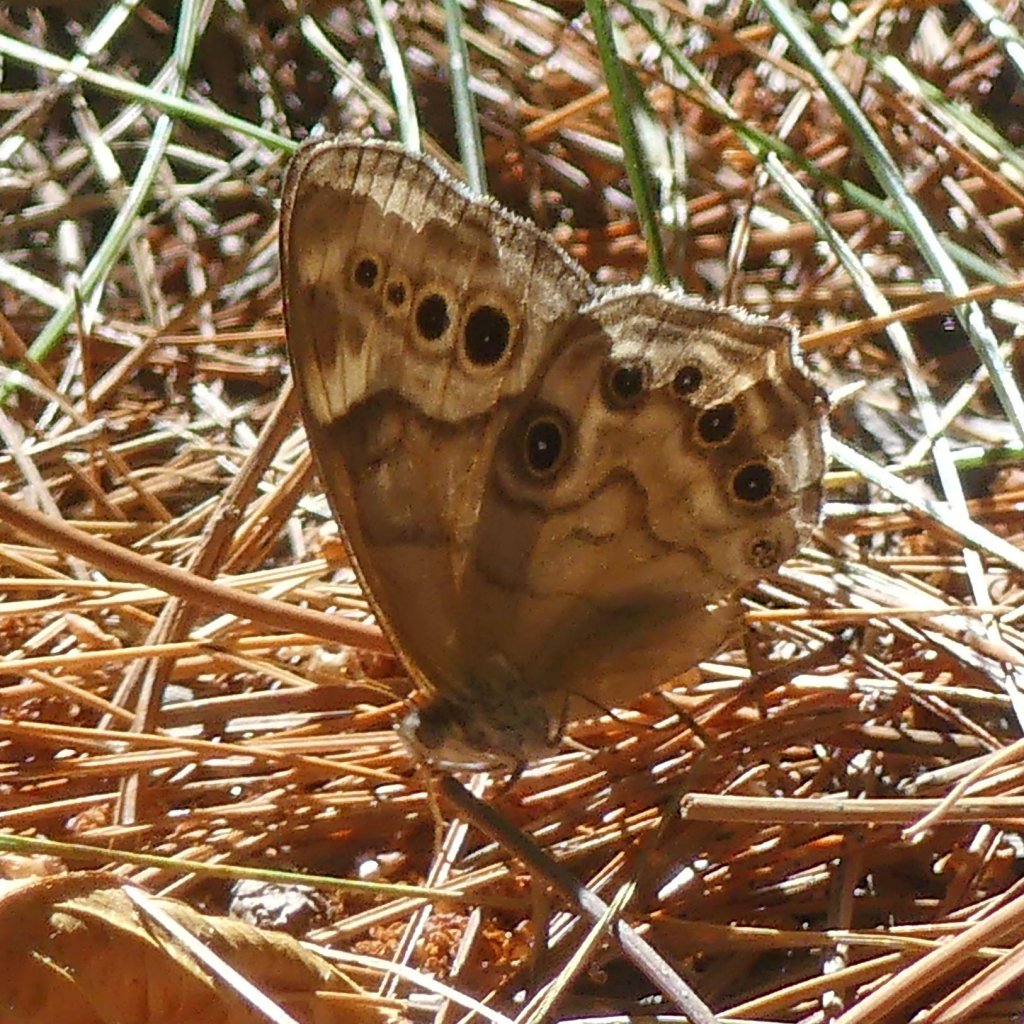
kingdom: Animalia
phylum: Arthropoda
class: Insecta
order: Lepidoptera
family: Nymphalidae
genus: Lethe
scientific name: Lethe anthedon
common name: Northern Pearly-Eye
